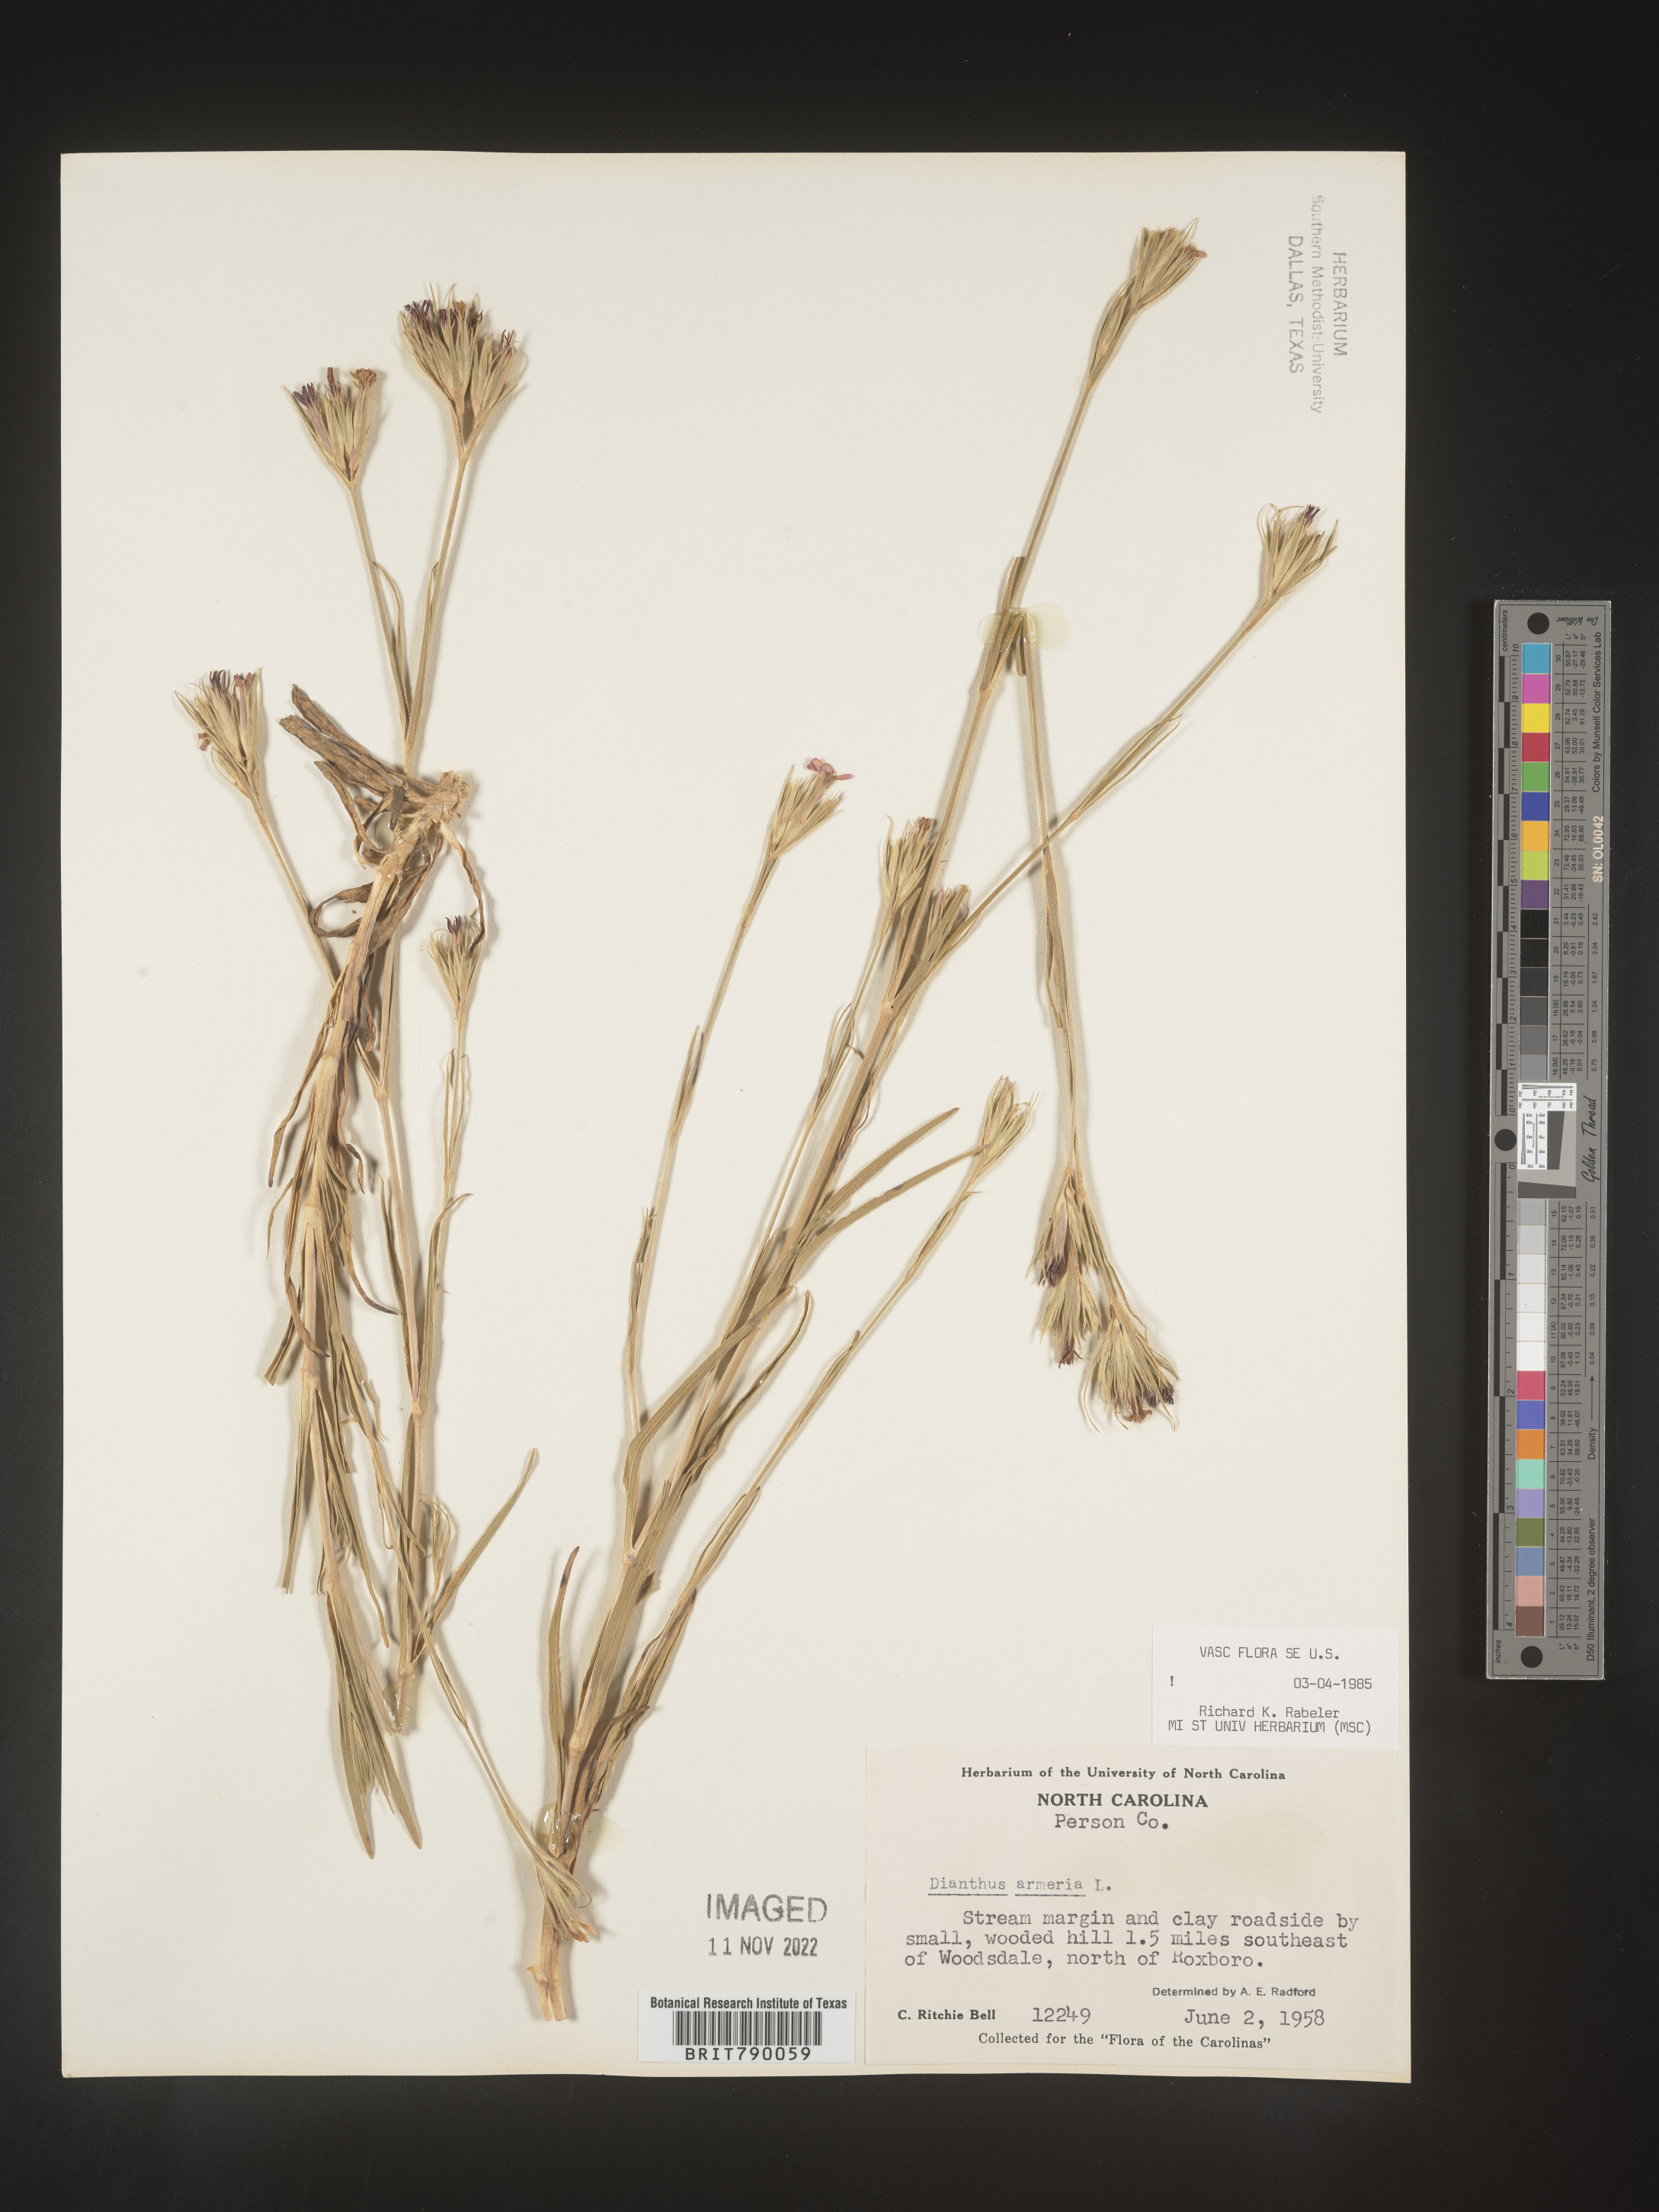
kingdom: Plantae
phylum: Tracheophyta
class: Magnoliopsida
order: Caryophyllales
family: Caryophyllaceae
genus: Dianthus
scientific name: Dianthus armeria
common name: Deptford pink
